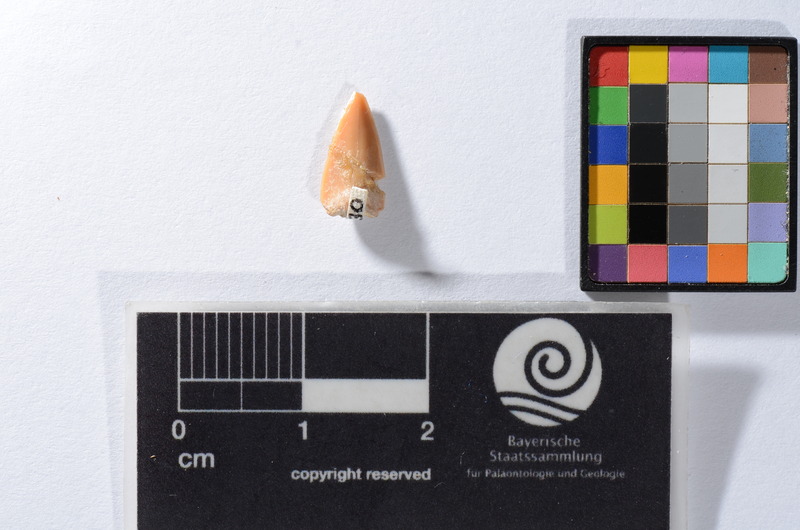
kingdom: Animalia
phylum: Chordata
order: Perciformes
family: Sphyraenidae
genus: Sphyraena
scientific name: Sphyraena Saurocephalus fajumensis
